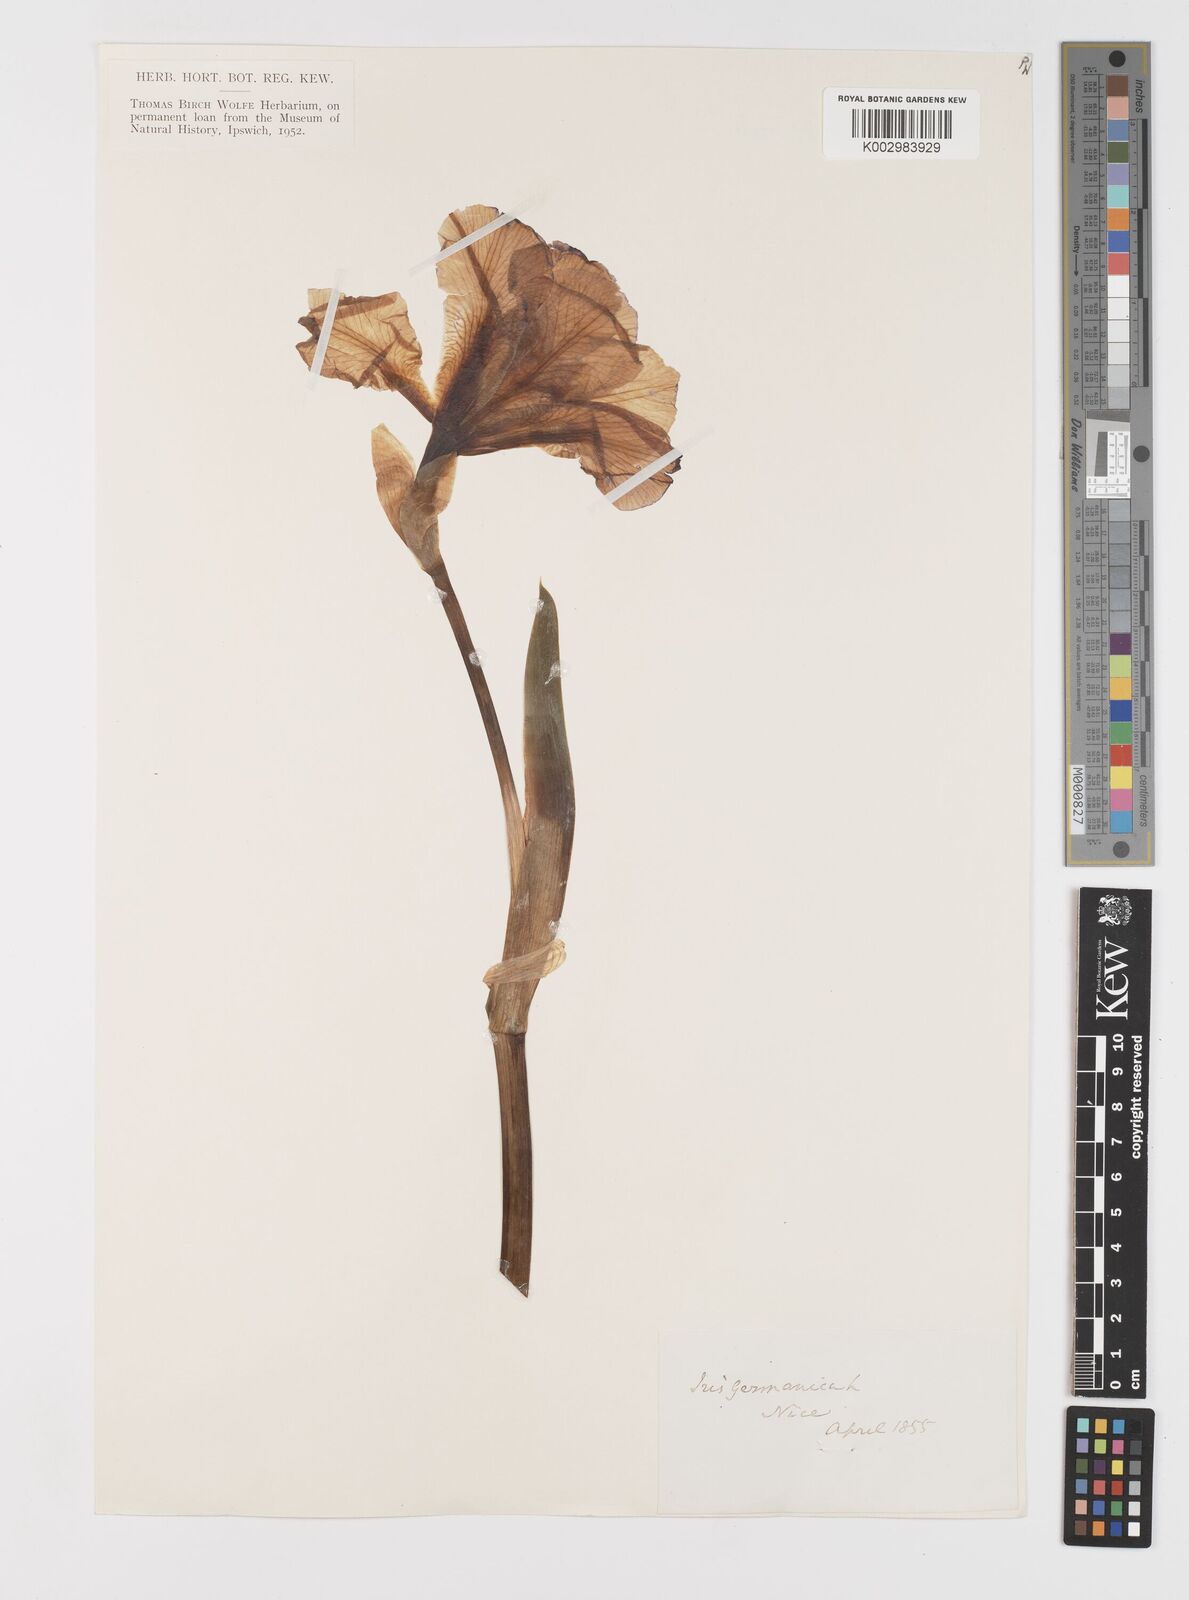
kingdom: Plantae
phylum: Tracheophyta
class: Liliopsida
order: Asparagales
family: Iridaceae
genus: Iris
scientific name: Iris germanica
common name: German iris
